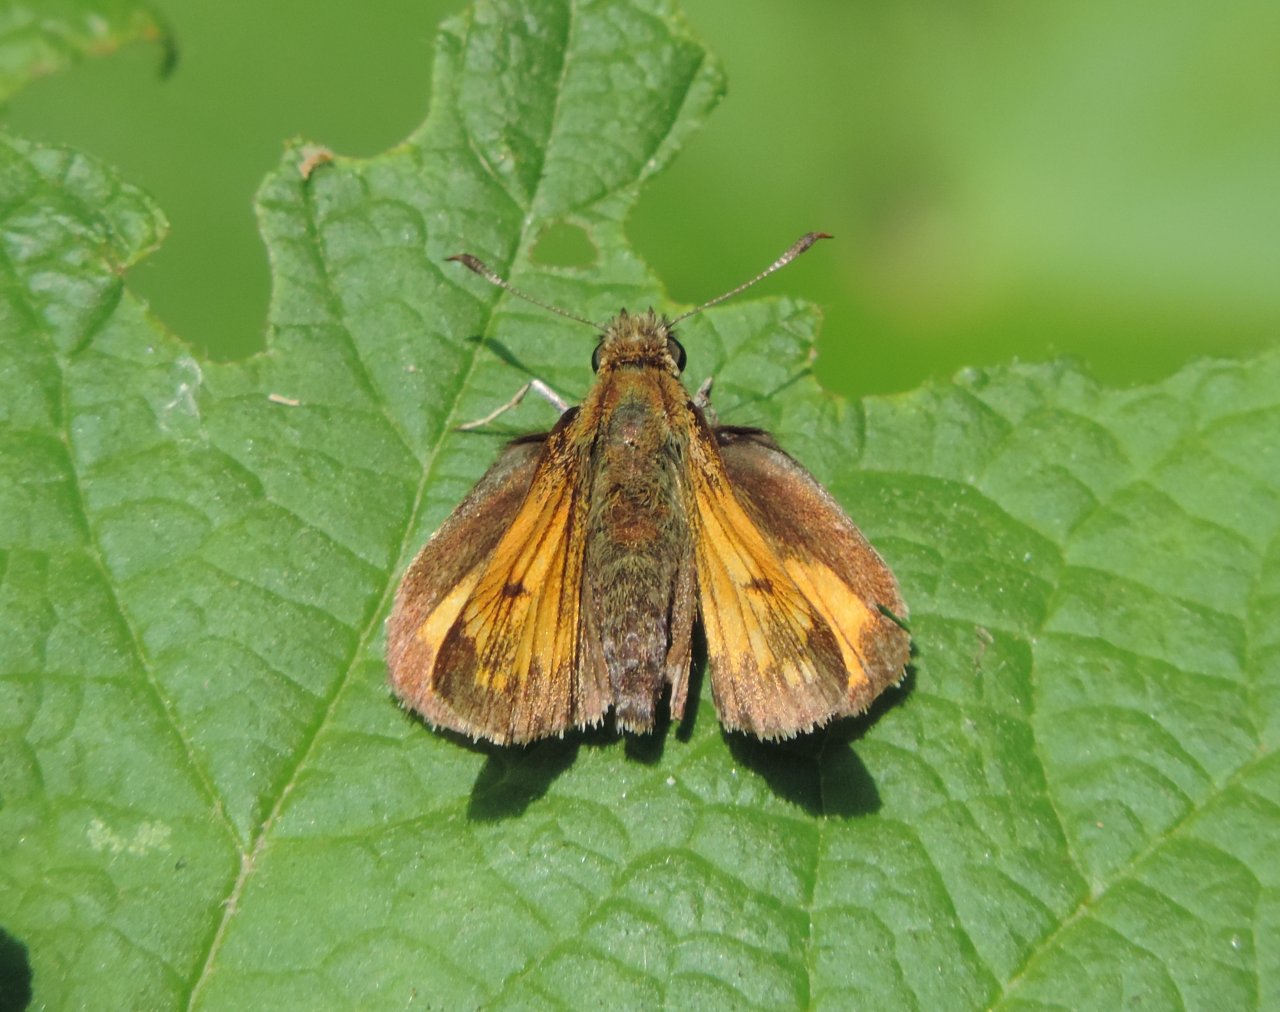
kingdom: Animalia
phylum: Arthropoda
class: Insecta
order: Lepidoptera
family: Hesperiidae
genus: Lon
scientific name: Lon hobomok
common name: Hobomok Skipper
